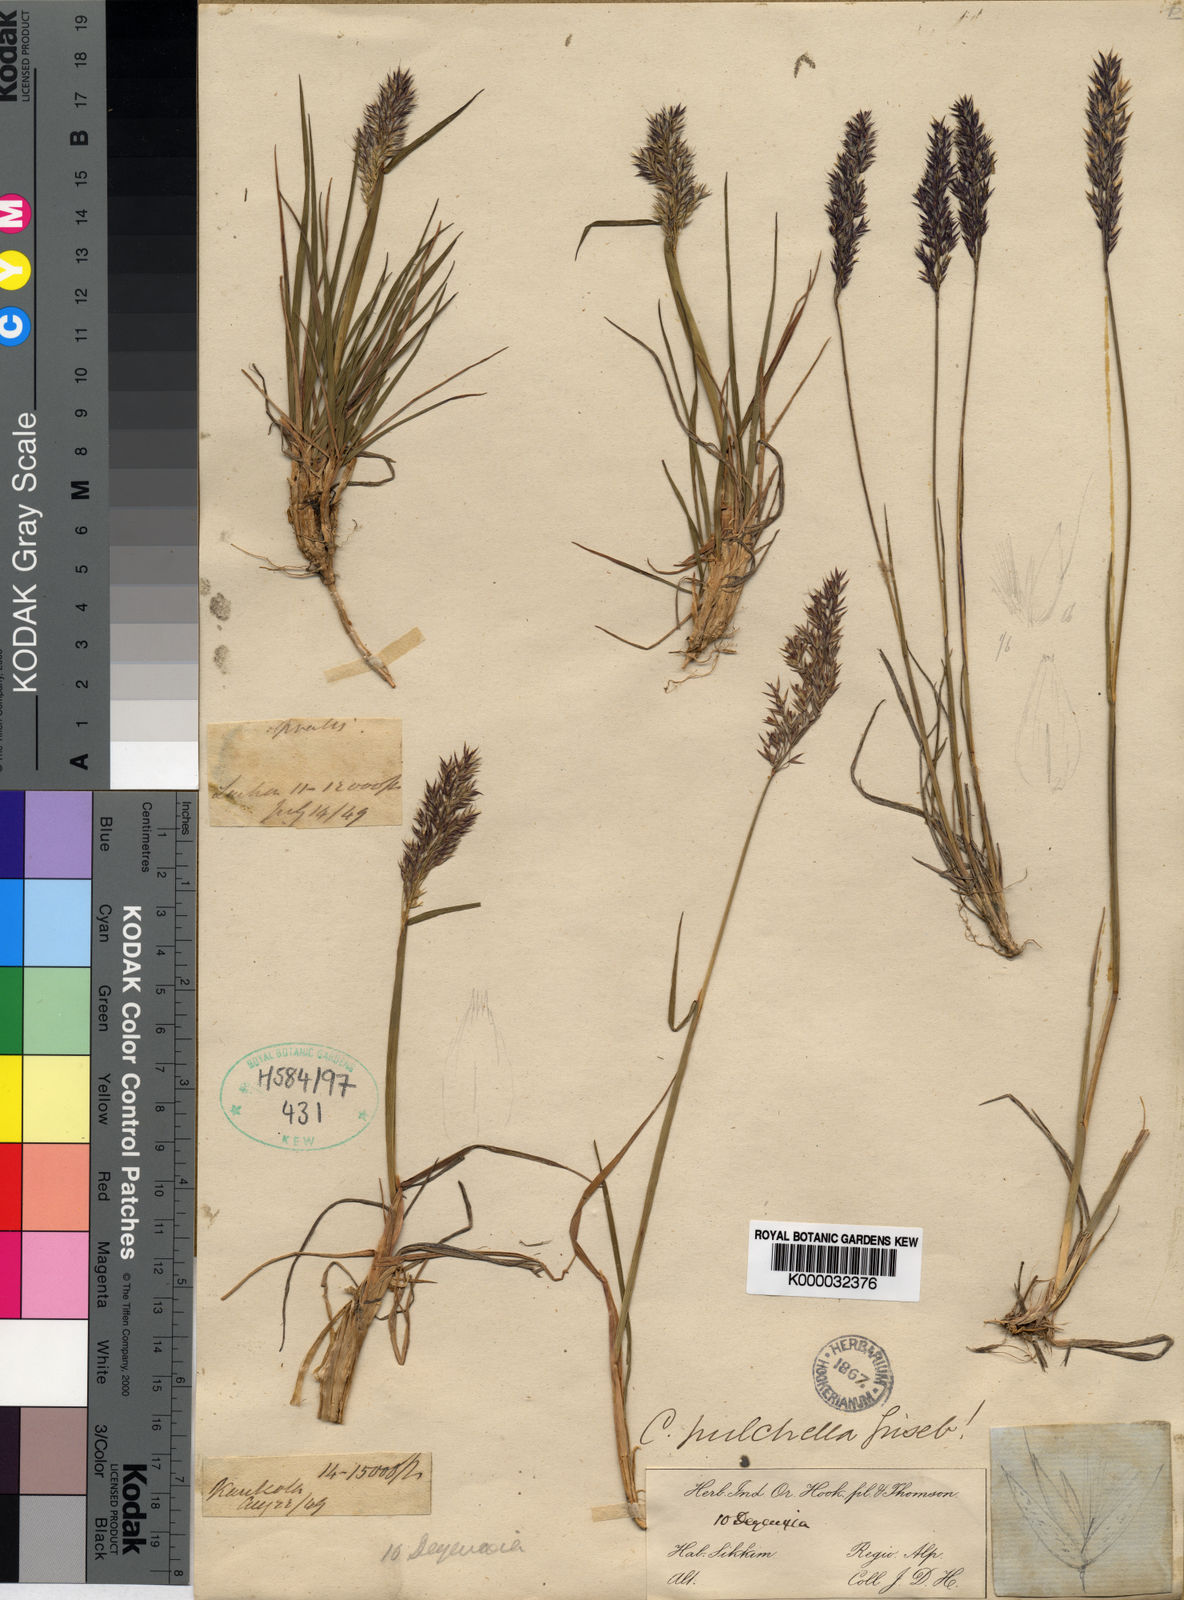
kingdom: Plantae
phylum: Tracheophyta
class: Liliopsida
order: Poales
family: Poaceae
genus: Calamagrostis
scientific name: Calamagrostis lahulensis
